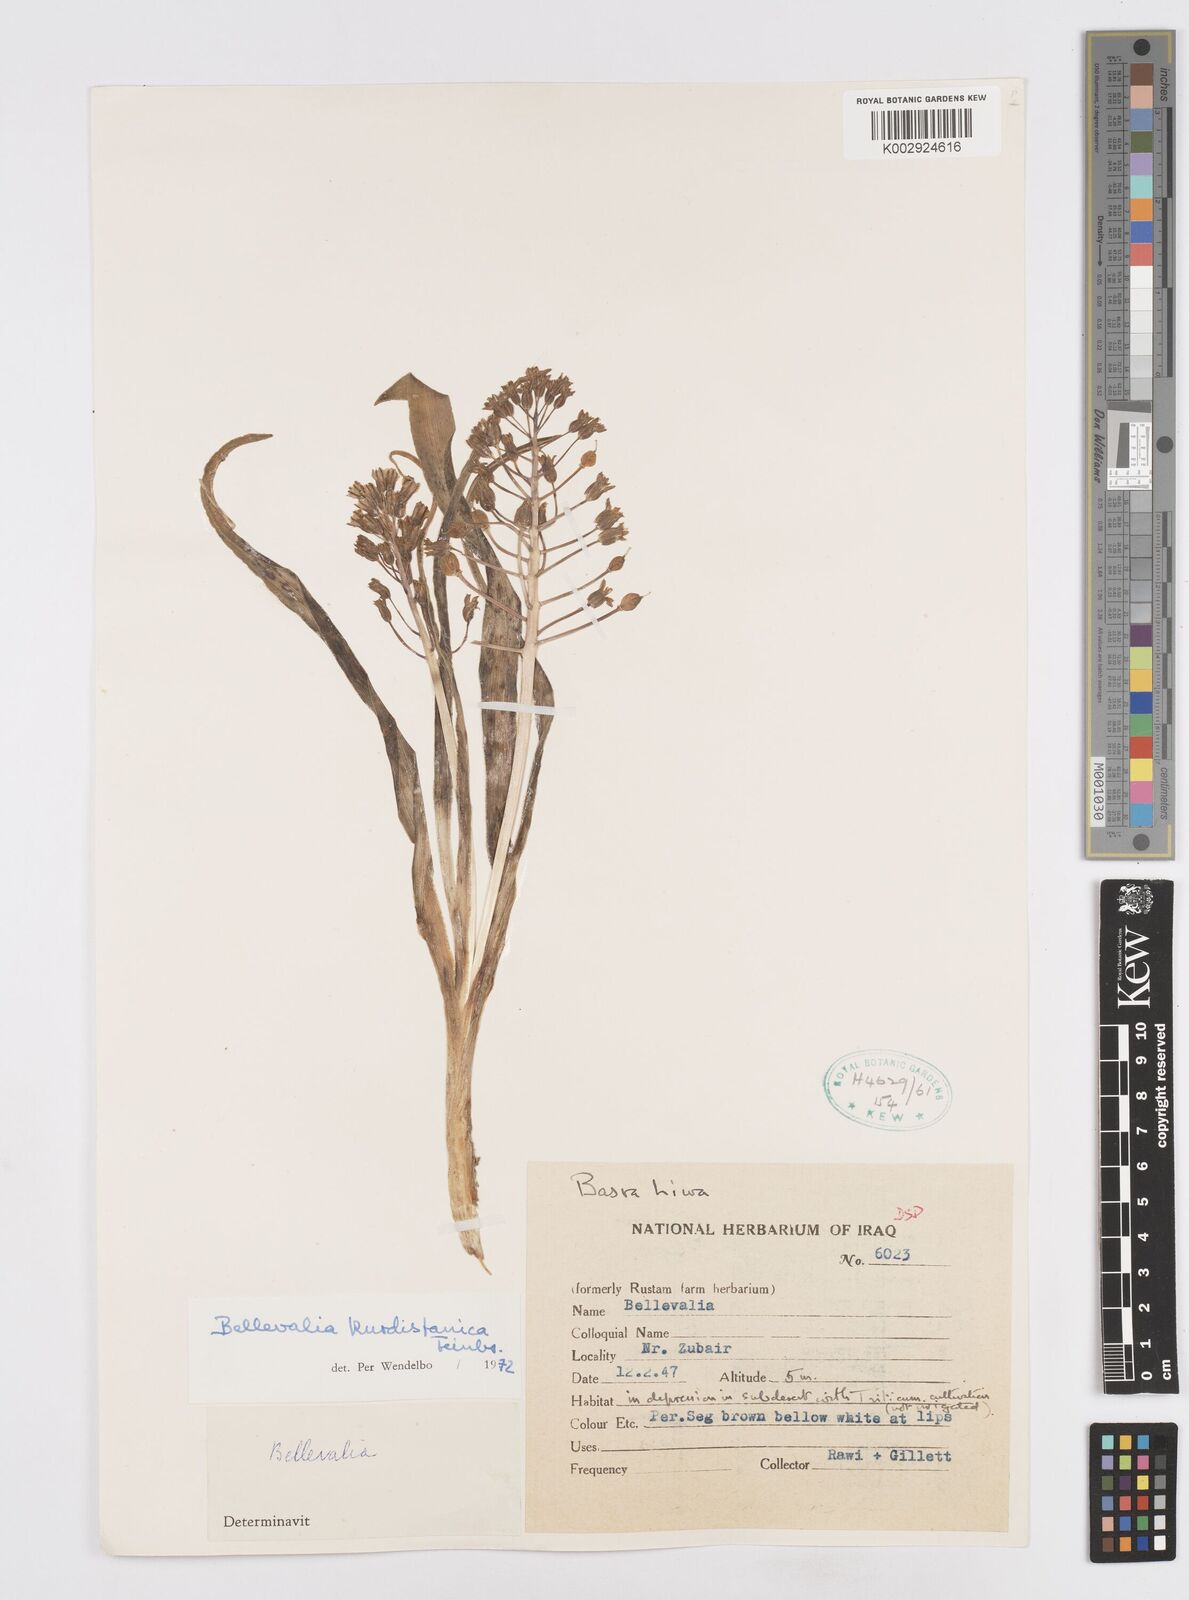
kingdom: Plantae
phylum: Tracheophyta
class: Liliopsida
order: Asparagales
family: Asparagaceae
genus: Bellevalia
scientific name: Bellevalia kurdistanica
